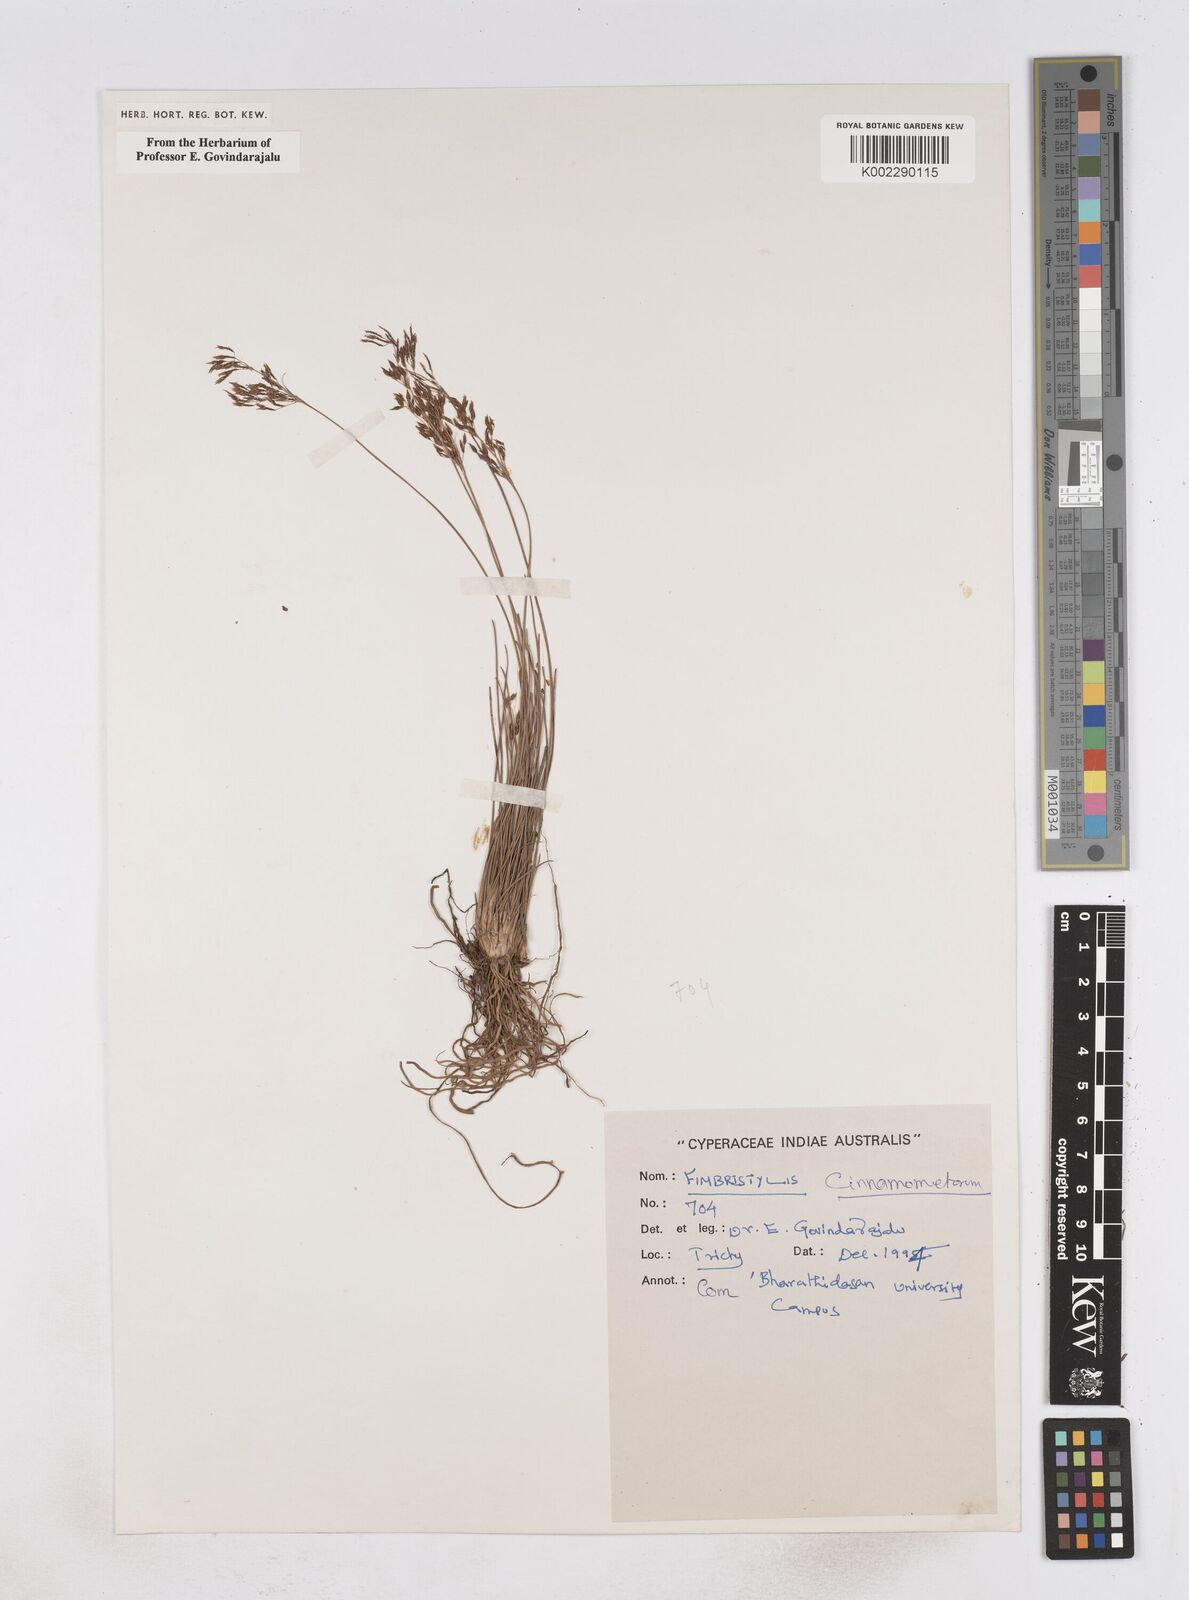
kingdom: Plantae
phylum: Tracheophyta
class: Liliopsida
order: Poales
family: Cyperaceae
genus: Fimbristylis
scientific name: Fimbristylis cinnamometorum
